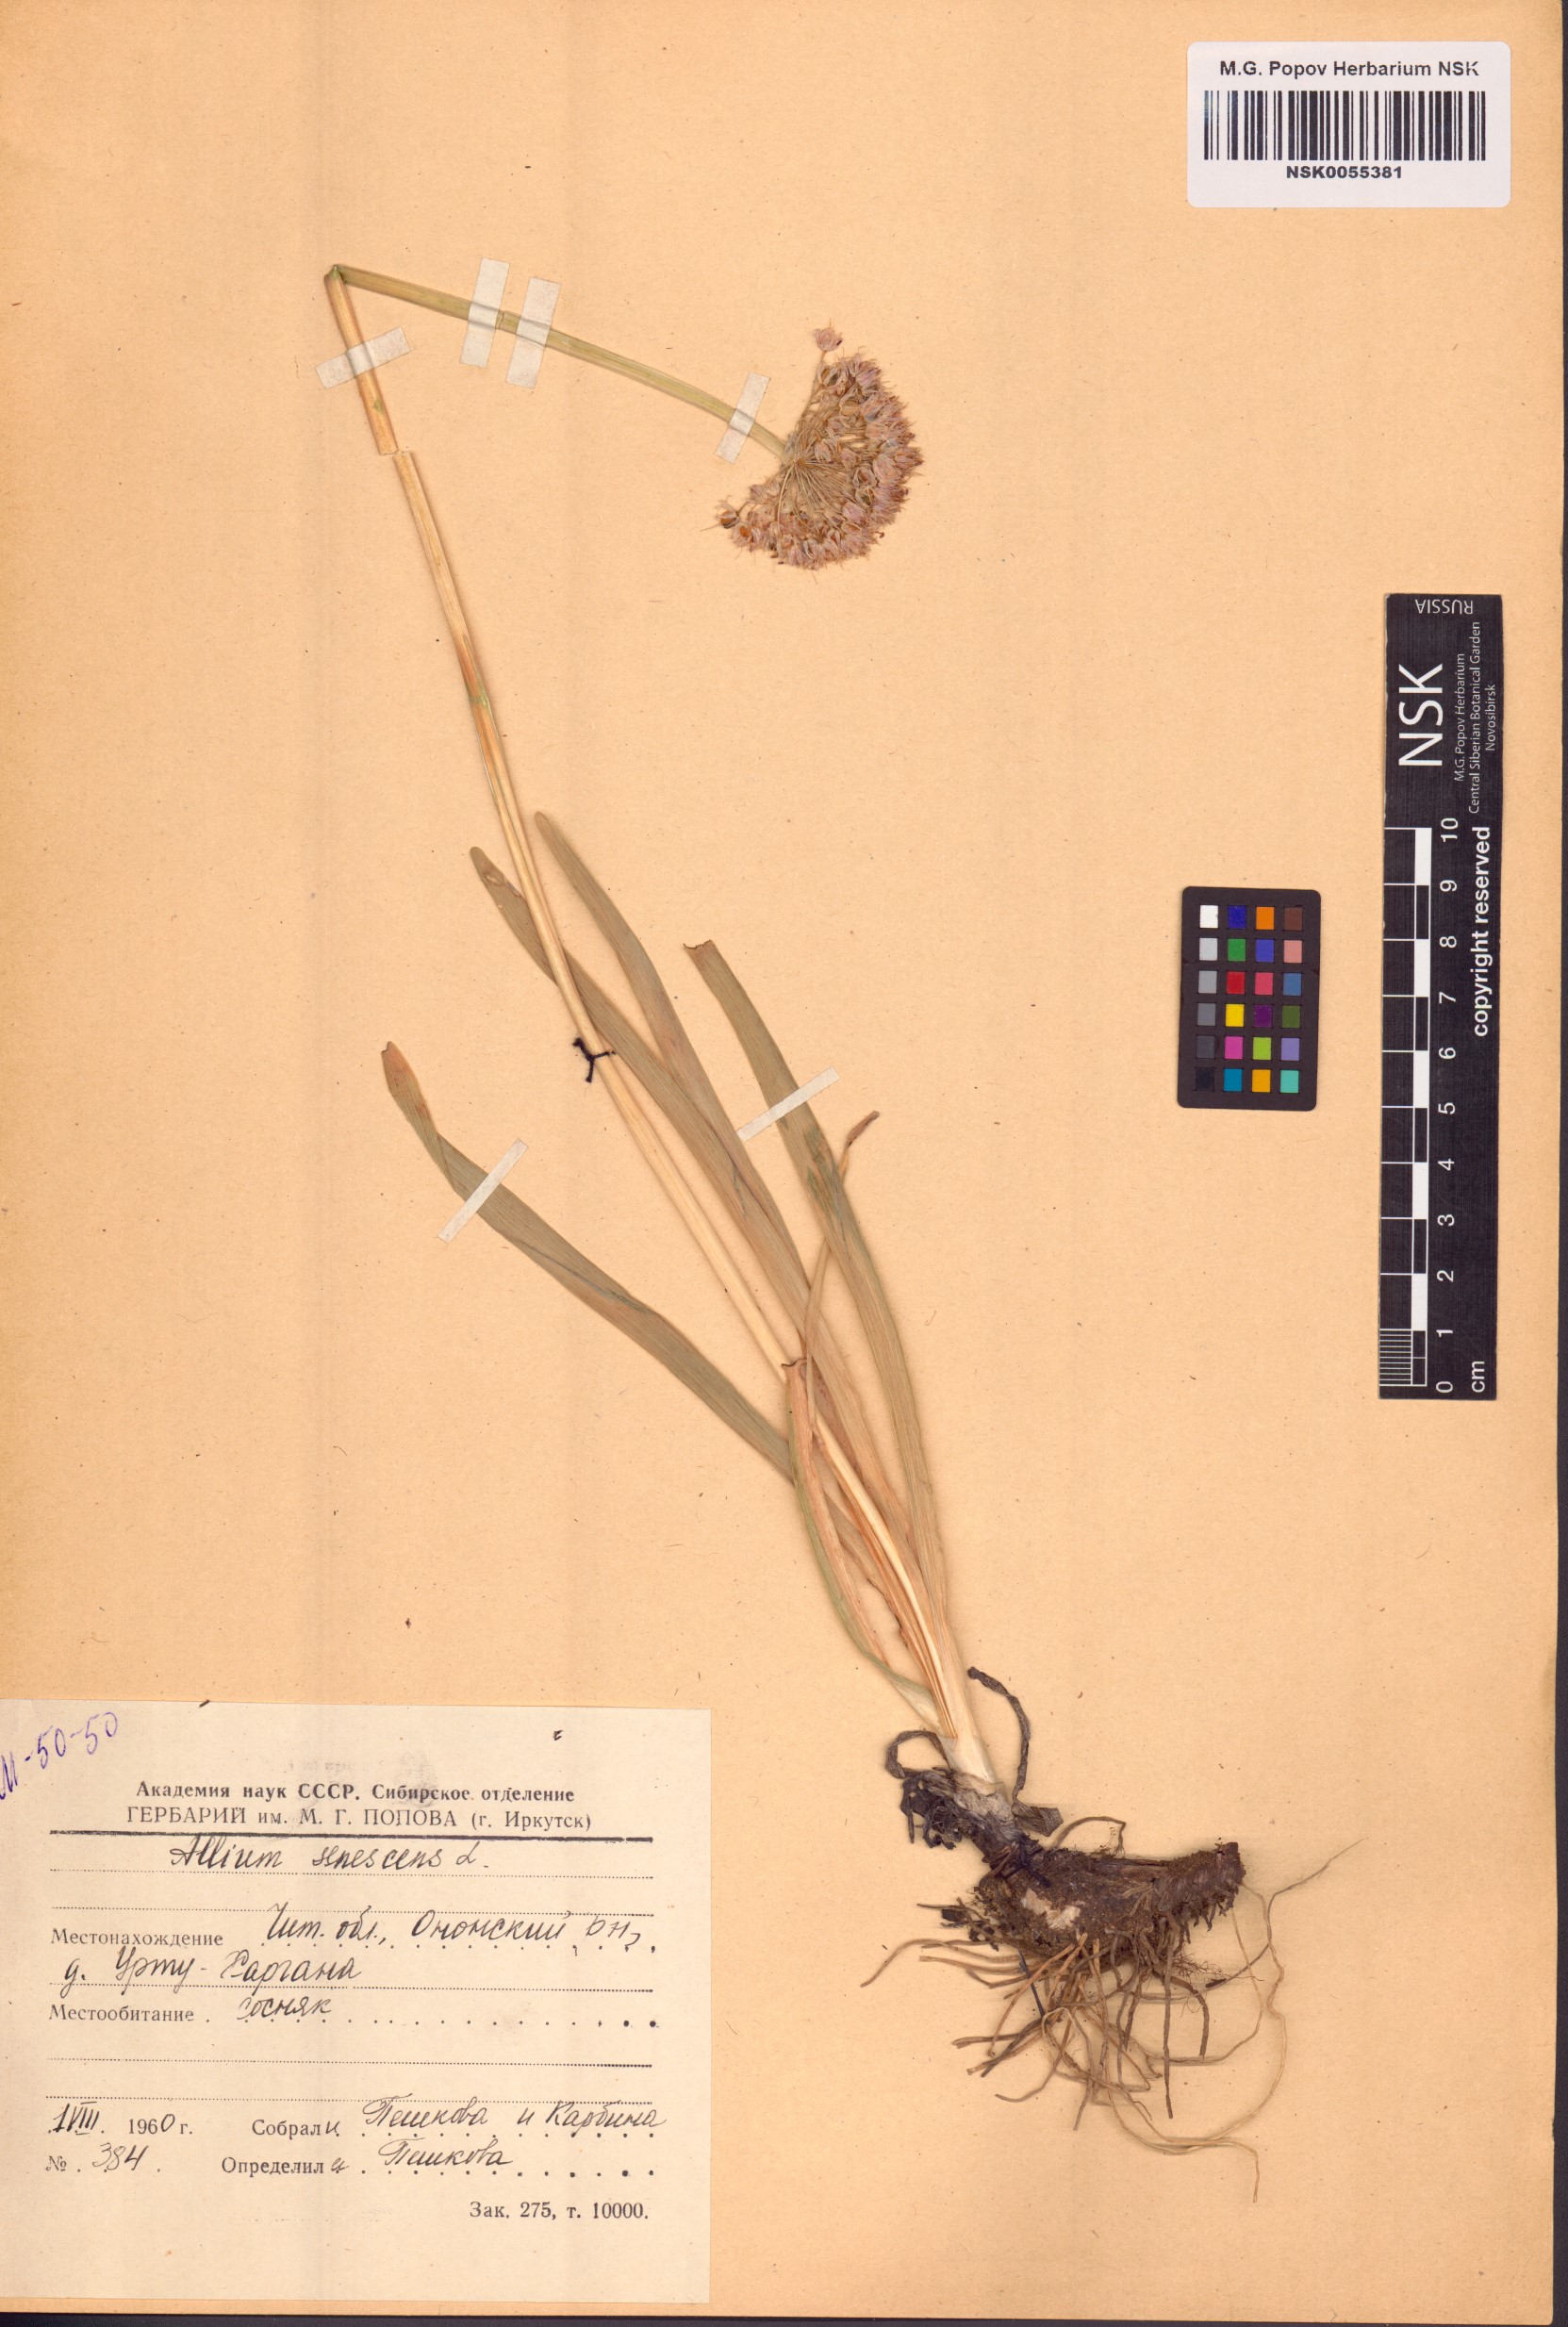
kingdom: Plantae
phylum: Tracheophyta
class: Liliopsida
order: Asparagales
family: Amaryllidaceae
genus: Allium
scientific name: Allium senescens
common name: German garlic
